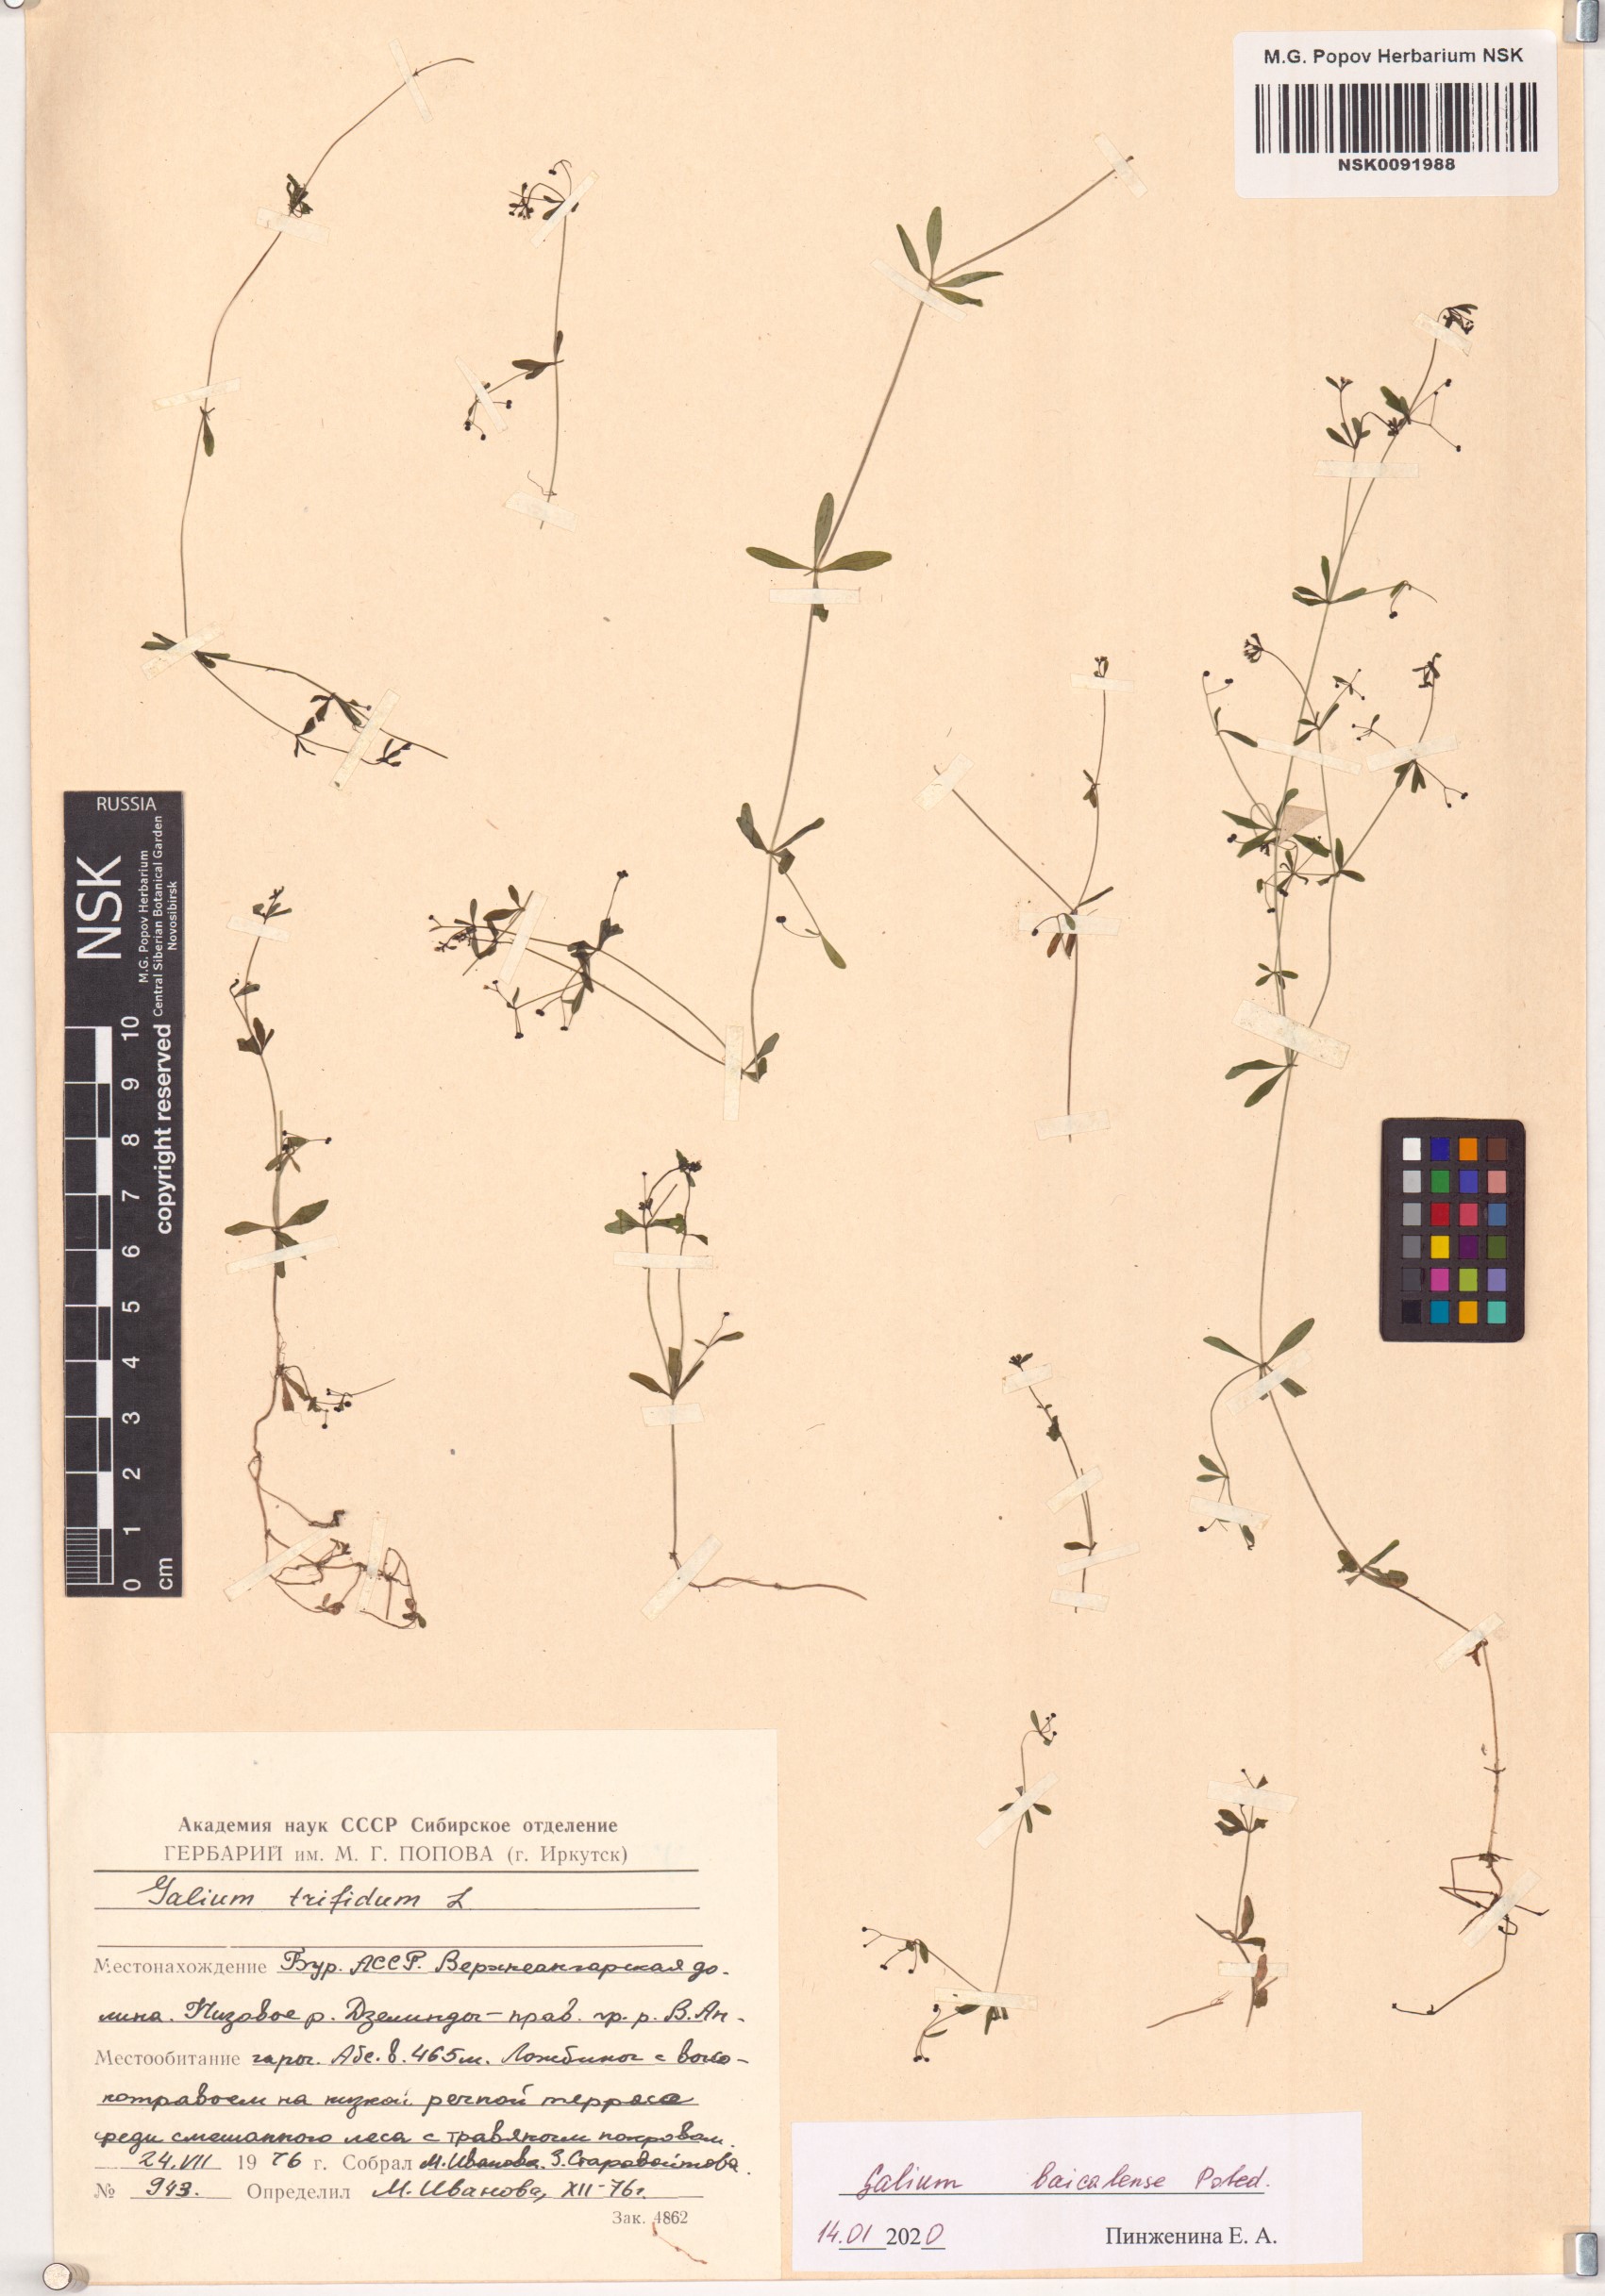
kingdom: Plantae
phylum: Tracheophyta
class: Magnoliopsida
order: Gentianales
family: Rubiaceae
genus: Galium
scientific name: Galium trifidum
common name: Small bedstraw
